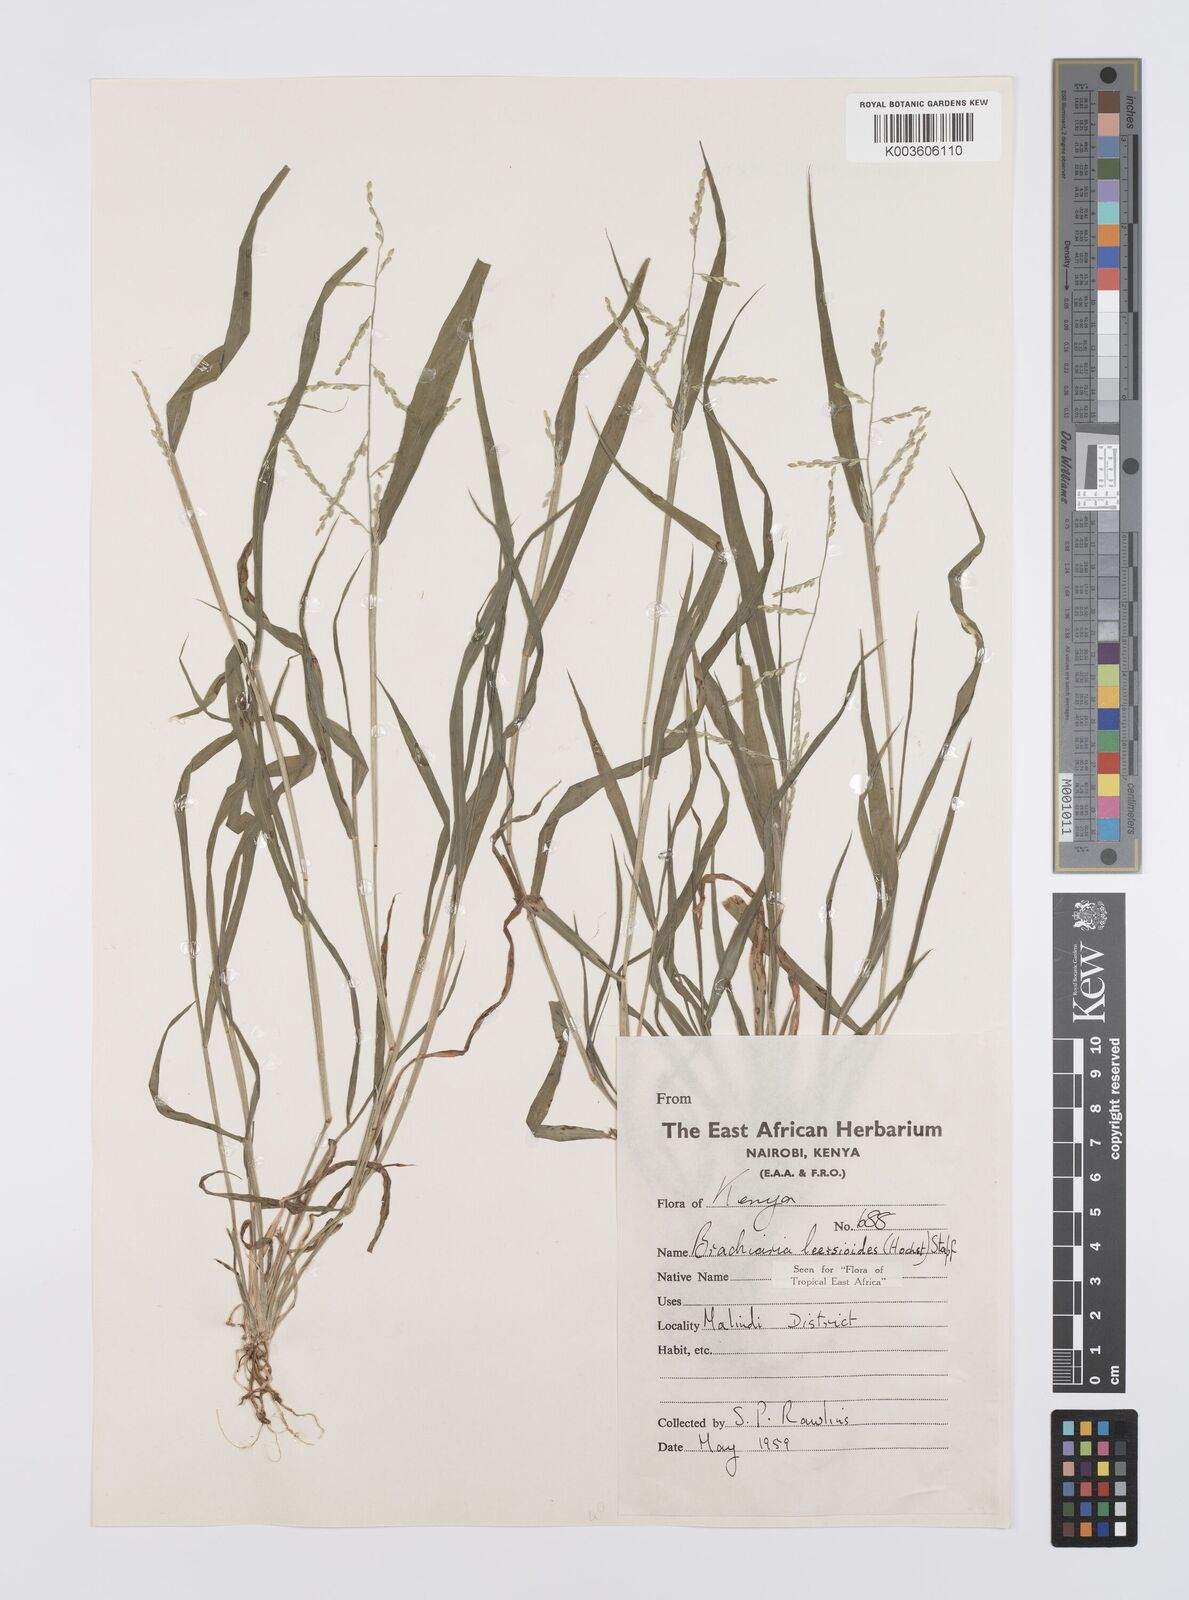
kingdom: Plantae
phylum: Tracheophyta
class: Liliopsida
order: Poales
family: Poaceae
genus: Urochloa
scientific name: Urochloa leersioides
